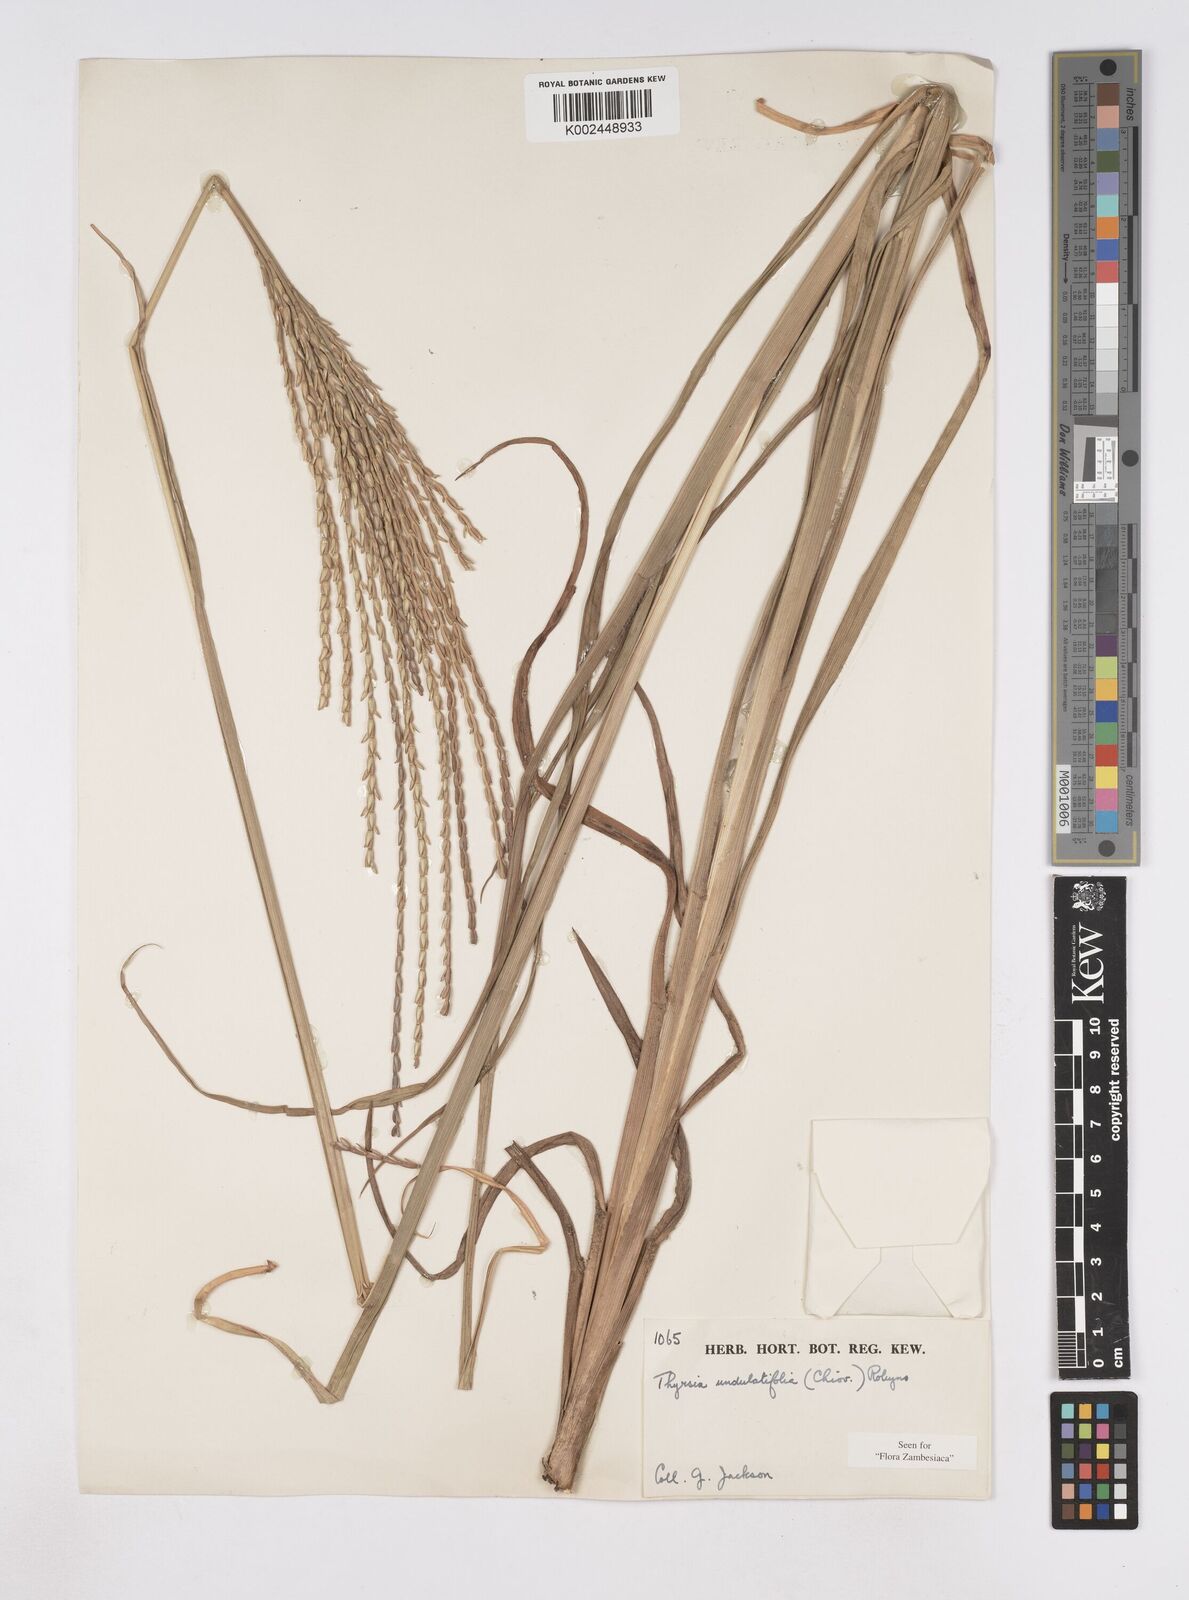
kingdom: Plantae
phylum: Tracheophyta
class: Liliopsida
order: Poales
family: Poaceae
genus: Thyrsia
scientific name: Thyrsia huillensis
